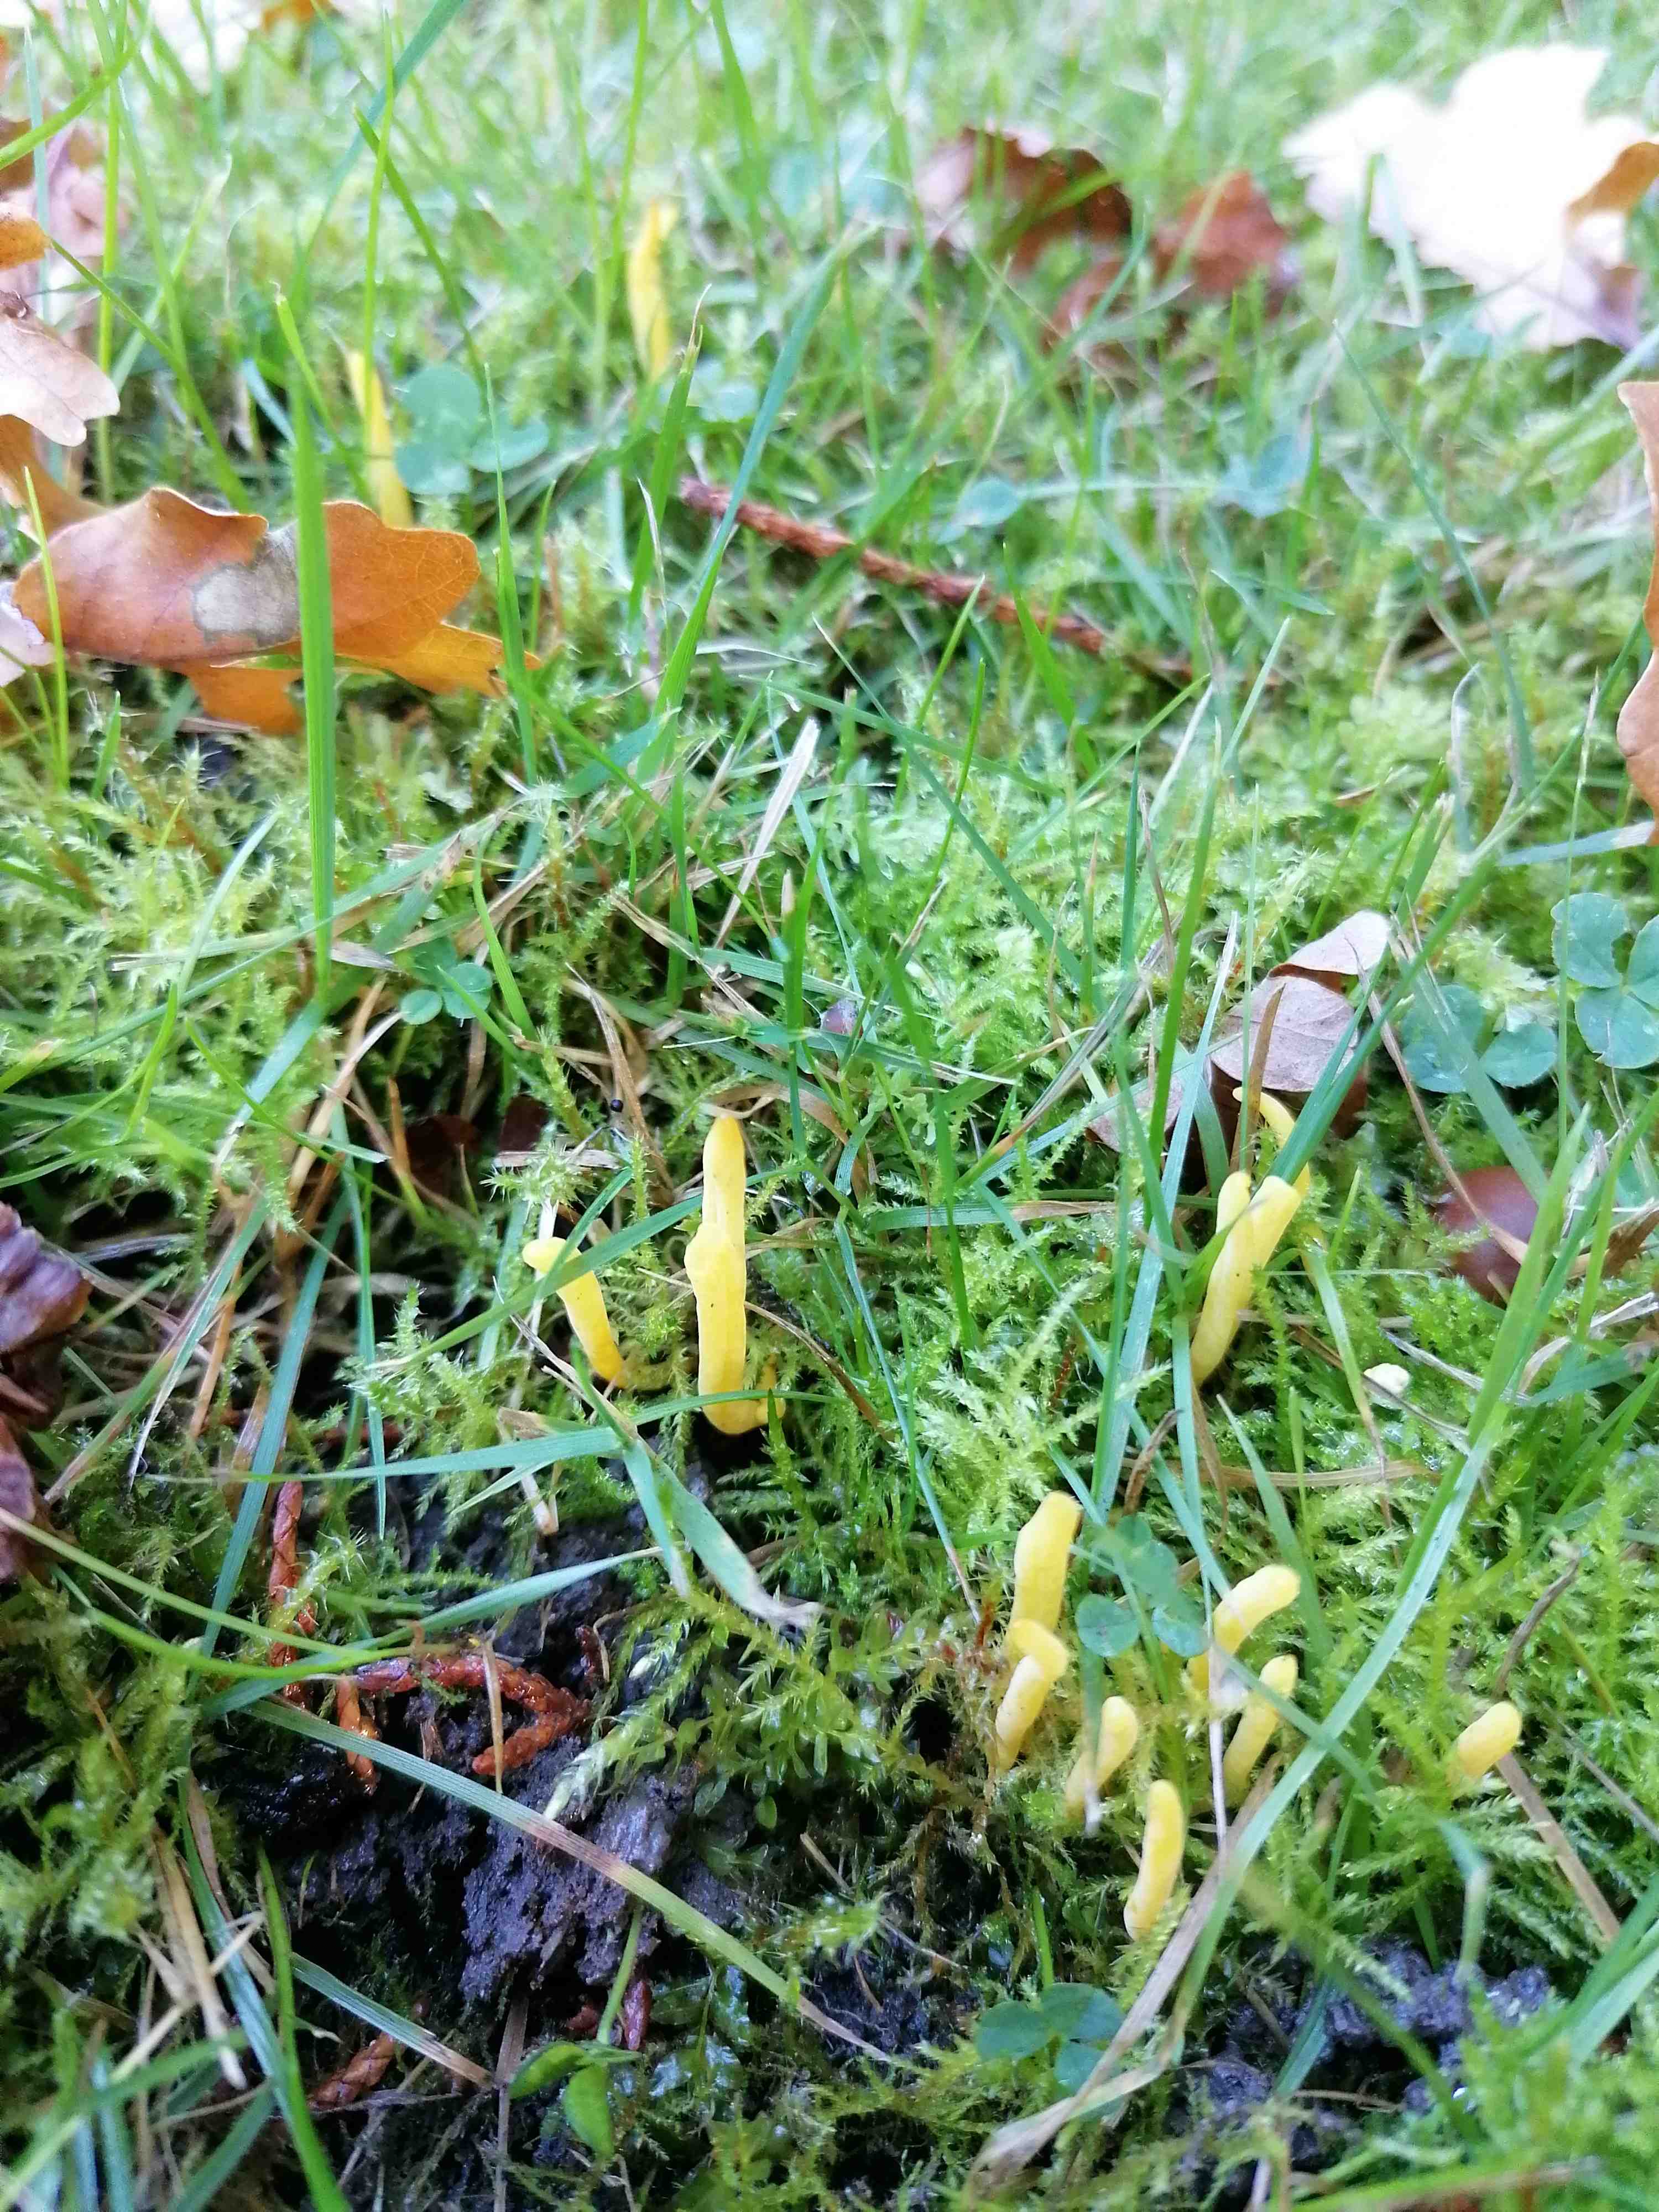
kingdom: Fungi
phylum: Basidiomycota
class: Agaricomycetes
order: Agaricales
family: Clavariaceae
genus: Clavulinopsis
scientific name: Clavulinopsis
